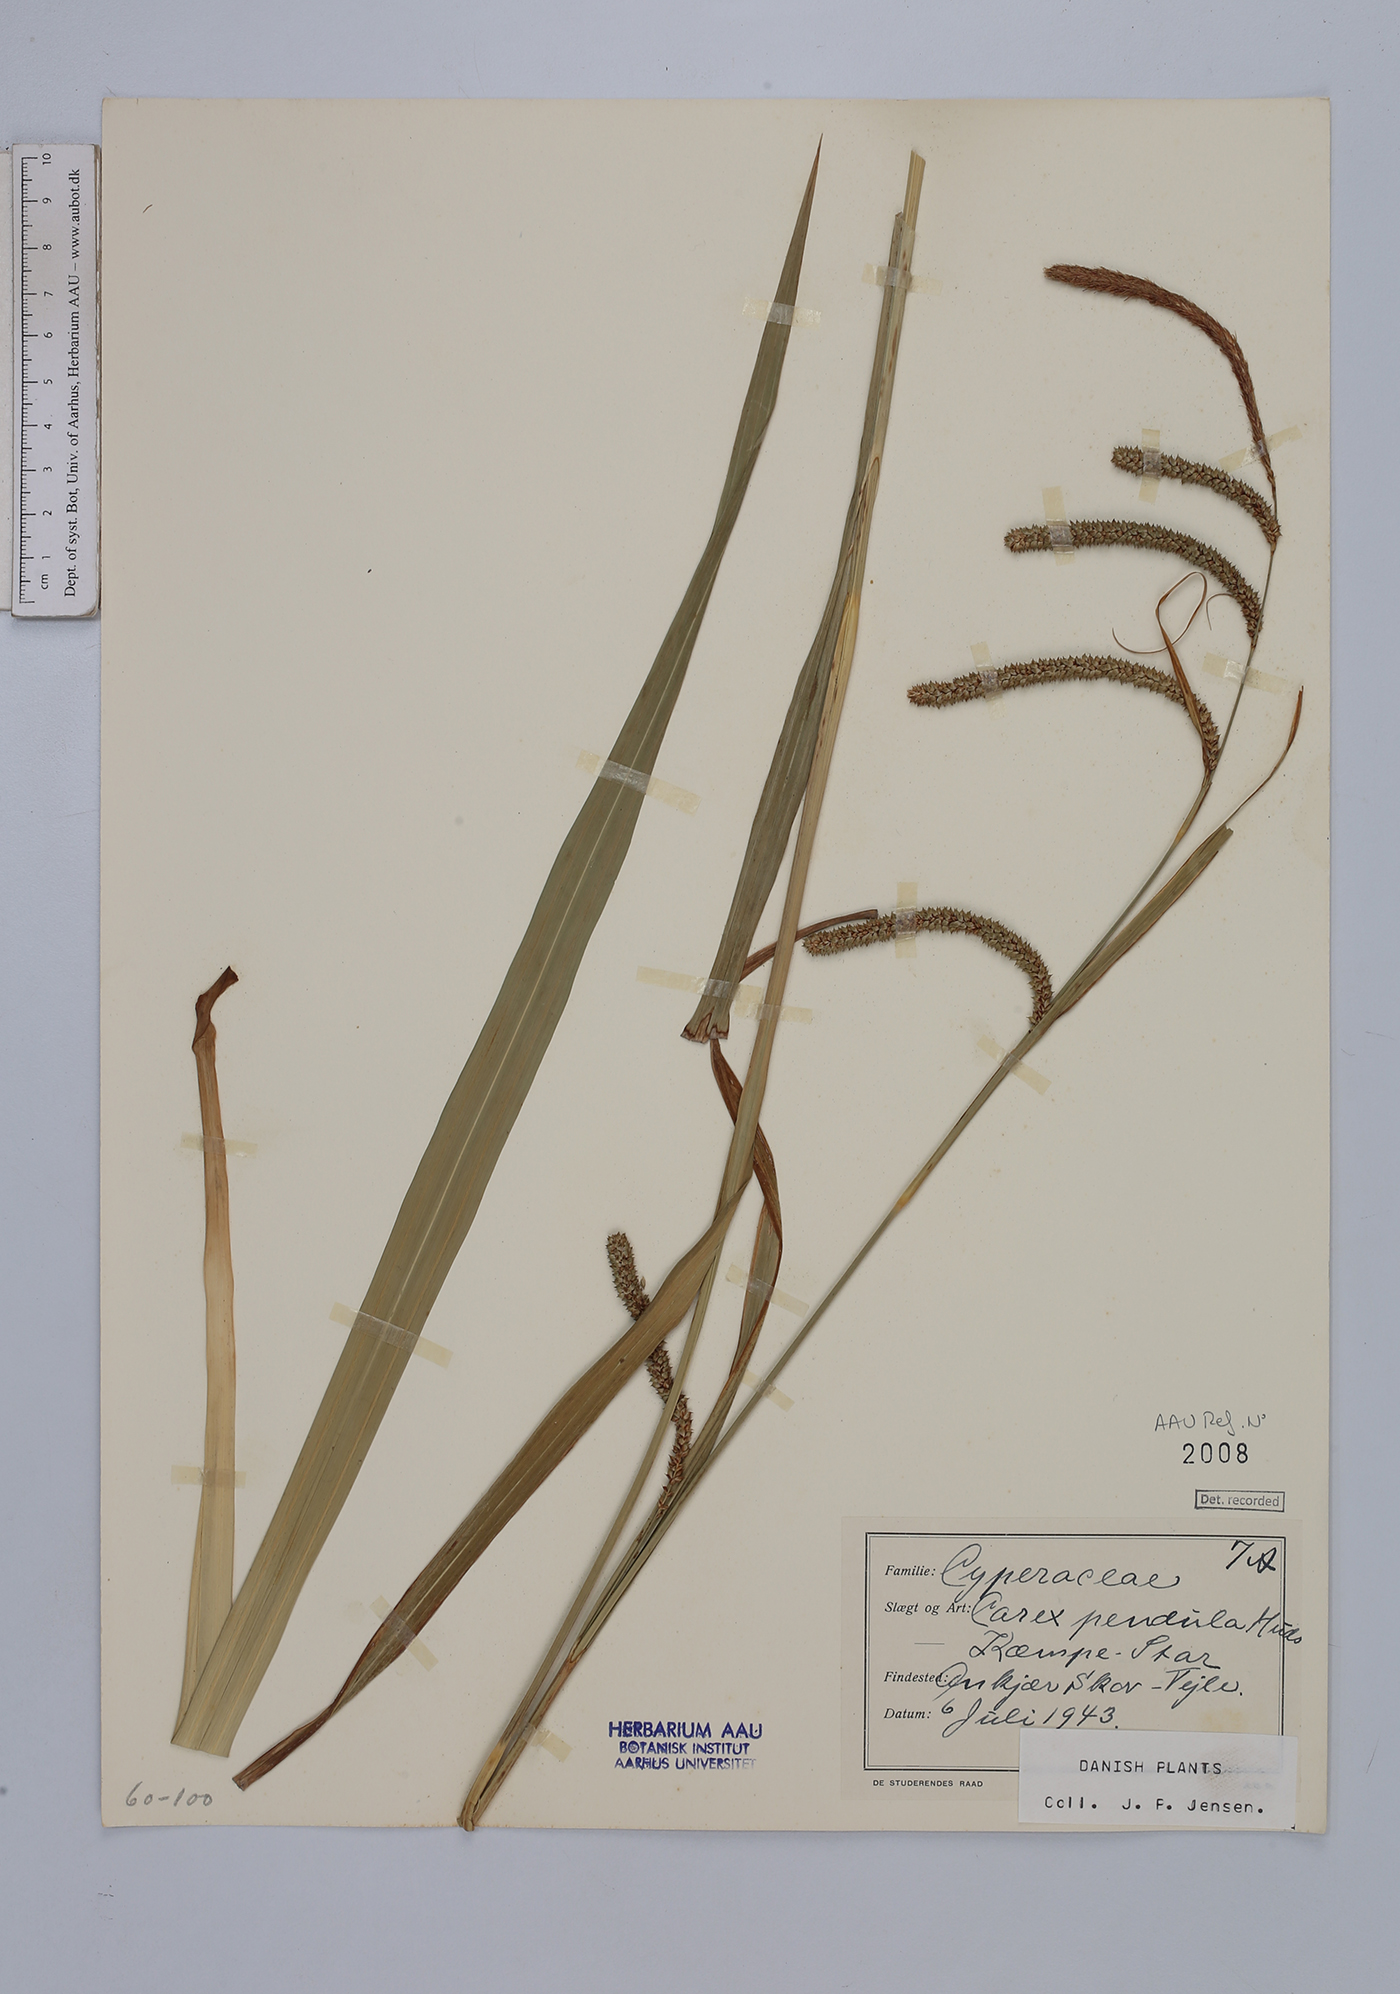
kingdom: Plantae
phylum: Tracheophyta
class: Liliopsida
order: Poales
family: Cyperaceae
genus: Carex
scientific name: Carex agastachys
